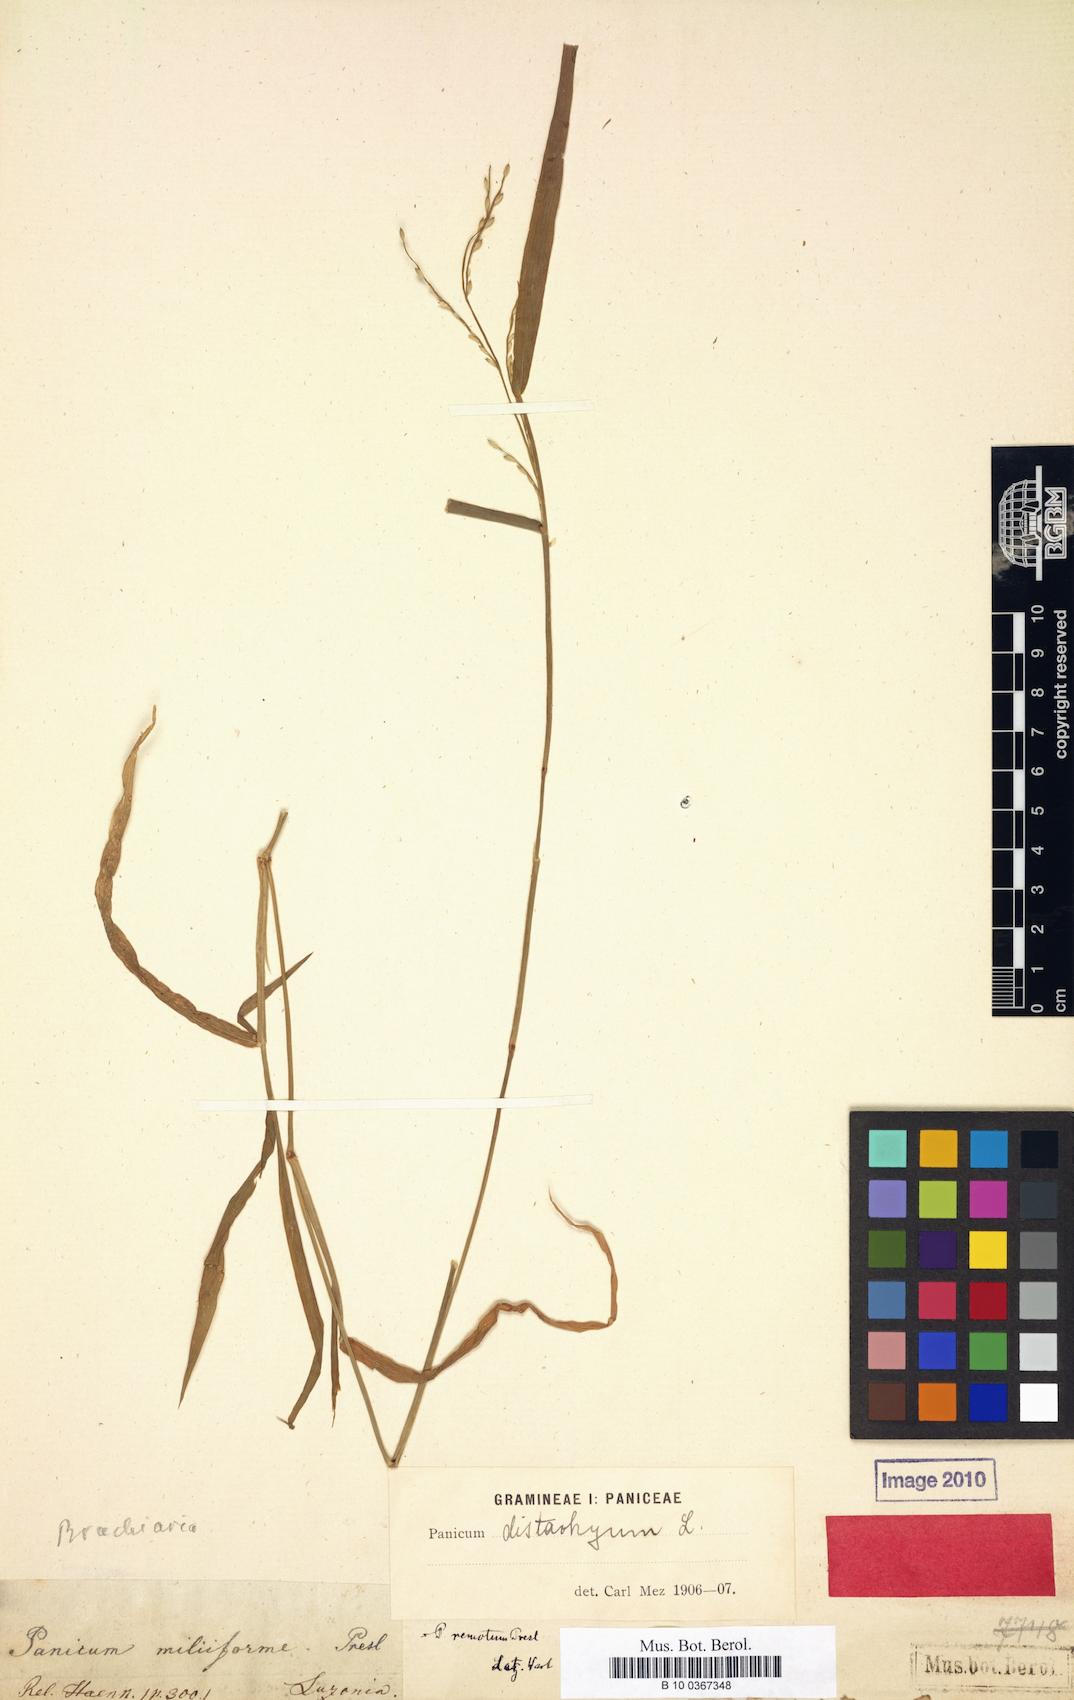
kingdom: Plantae
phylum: Tracheophyta
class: Liliopsida
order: Poales
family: Poaceae
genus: Urochloa
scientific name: Urochloa subquadripara
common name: Armgrass millet
